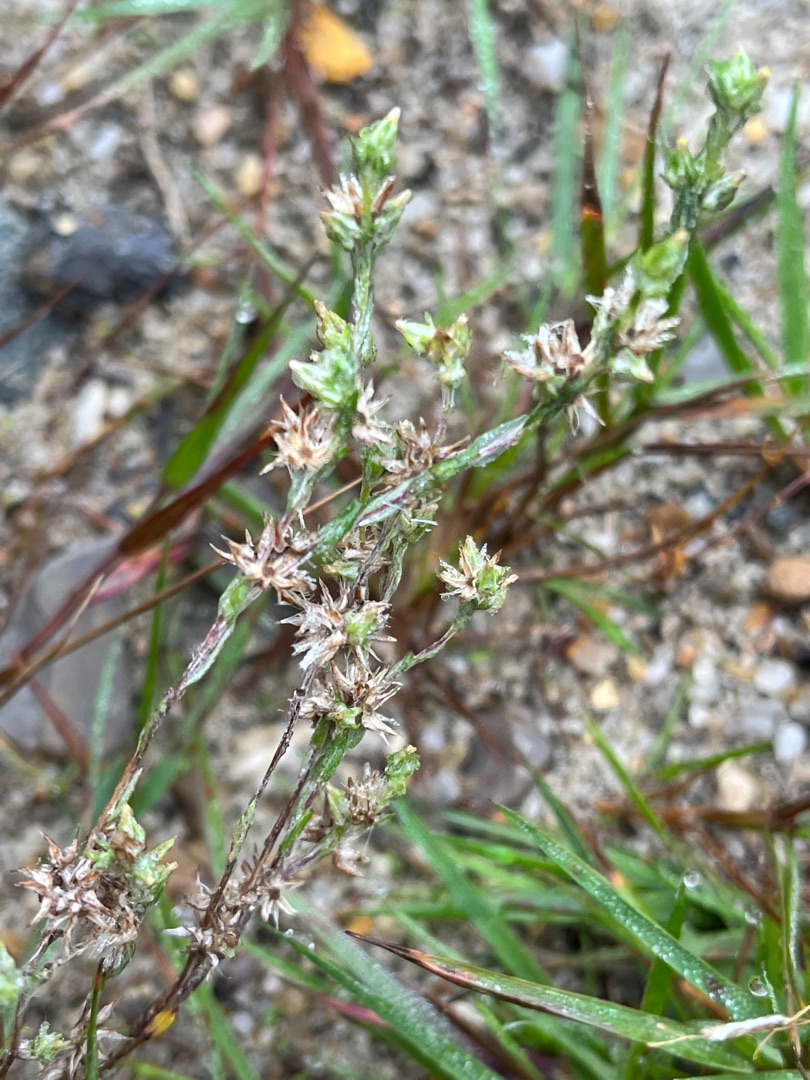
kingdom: Plantae
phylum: Tracheophyta
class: Magnoliopsida
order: Asterales
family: Asteraceae
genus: Logfia
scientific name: Logfia minima
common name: Liden museurt
